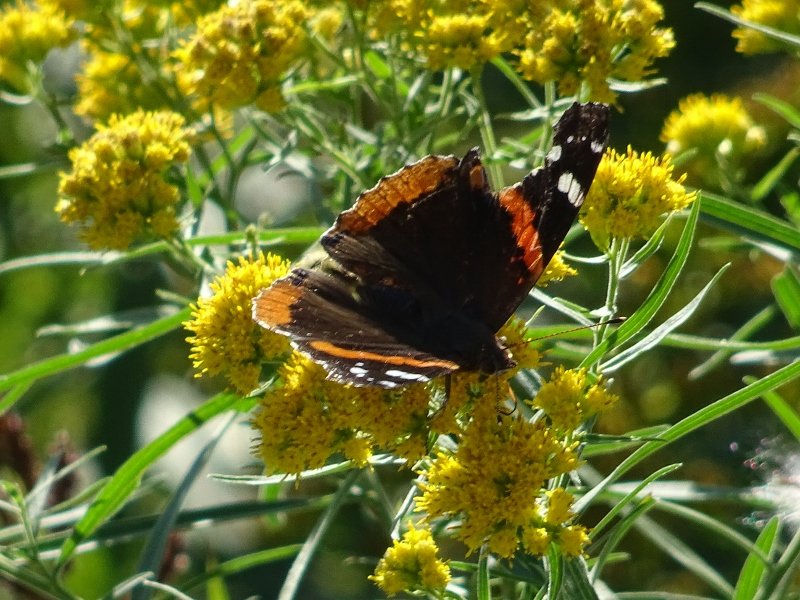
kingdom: Animalia
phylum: Arthropoda
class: Insecta
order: Lepidoptera
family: Nymphalidae
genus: Vanessa
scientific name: Vanessa atalanta
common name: Red Admiral
